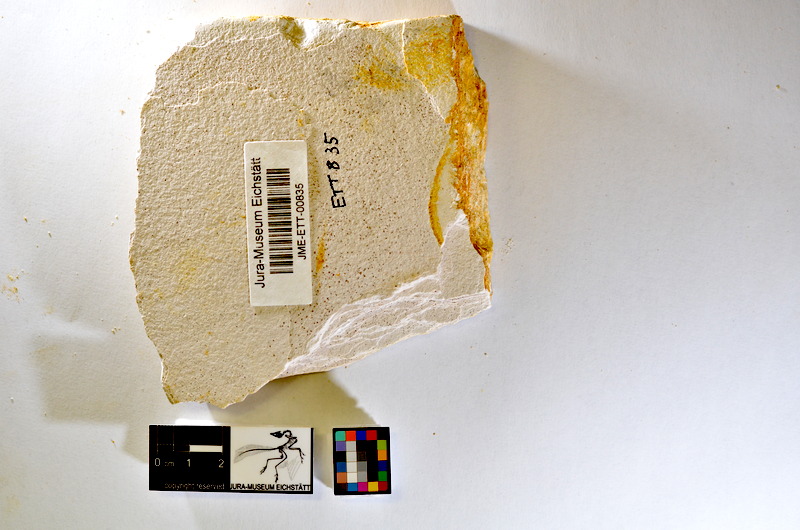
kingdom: Animalia
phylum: Chordata
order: Salmoniformes
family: Orthogonikleithridae
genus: Orthogonikleithrus
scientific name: Orthogonikleithrus hoelli
